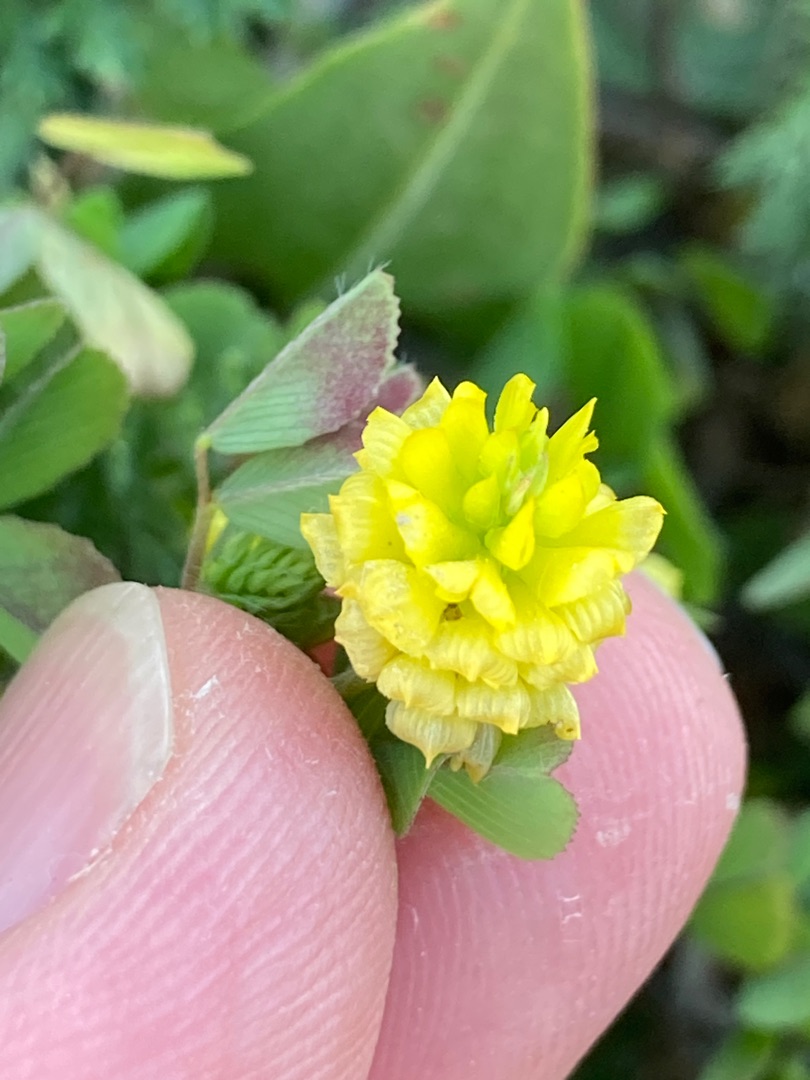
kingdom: Plantae
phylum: Tracheophyta
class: Magnoliopsida
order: Fabales
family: Fabaceae
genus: Trifolium
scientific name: Trifolium campestre
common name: Gul kløver
